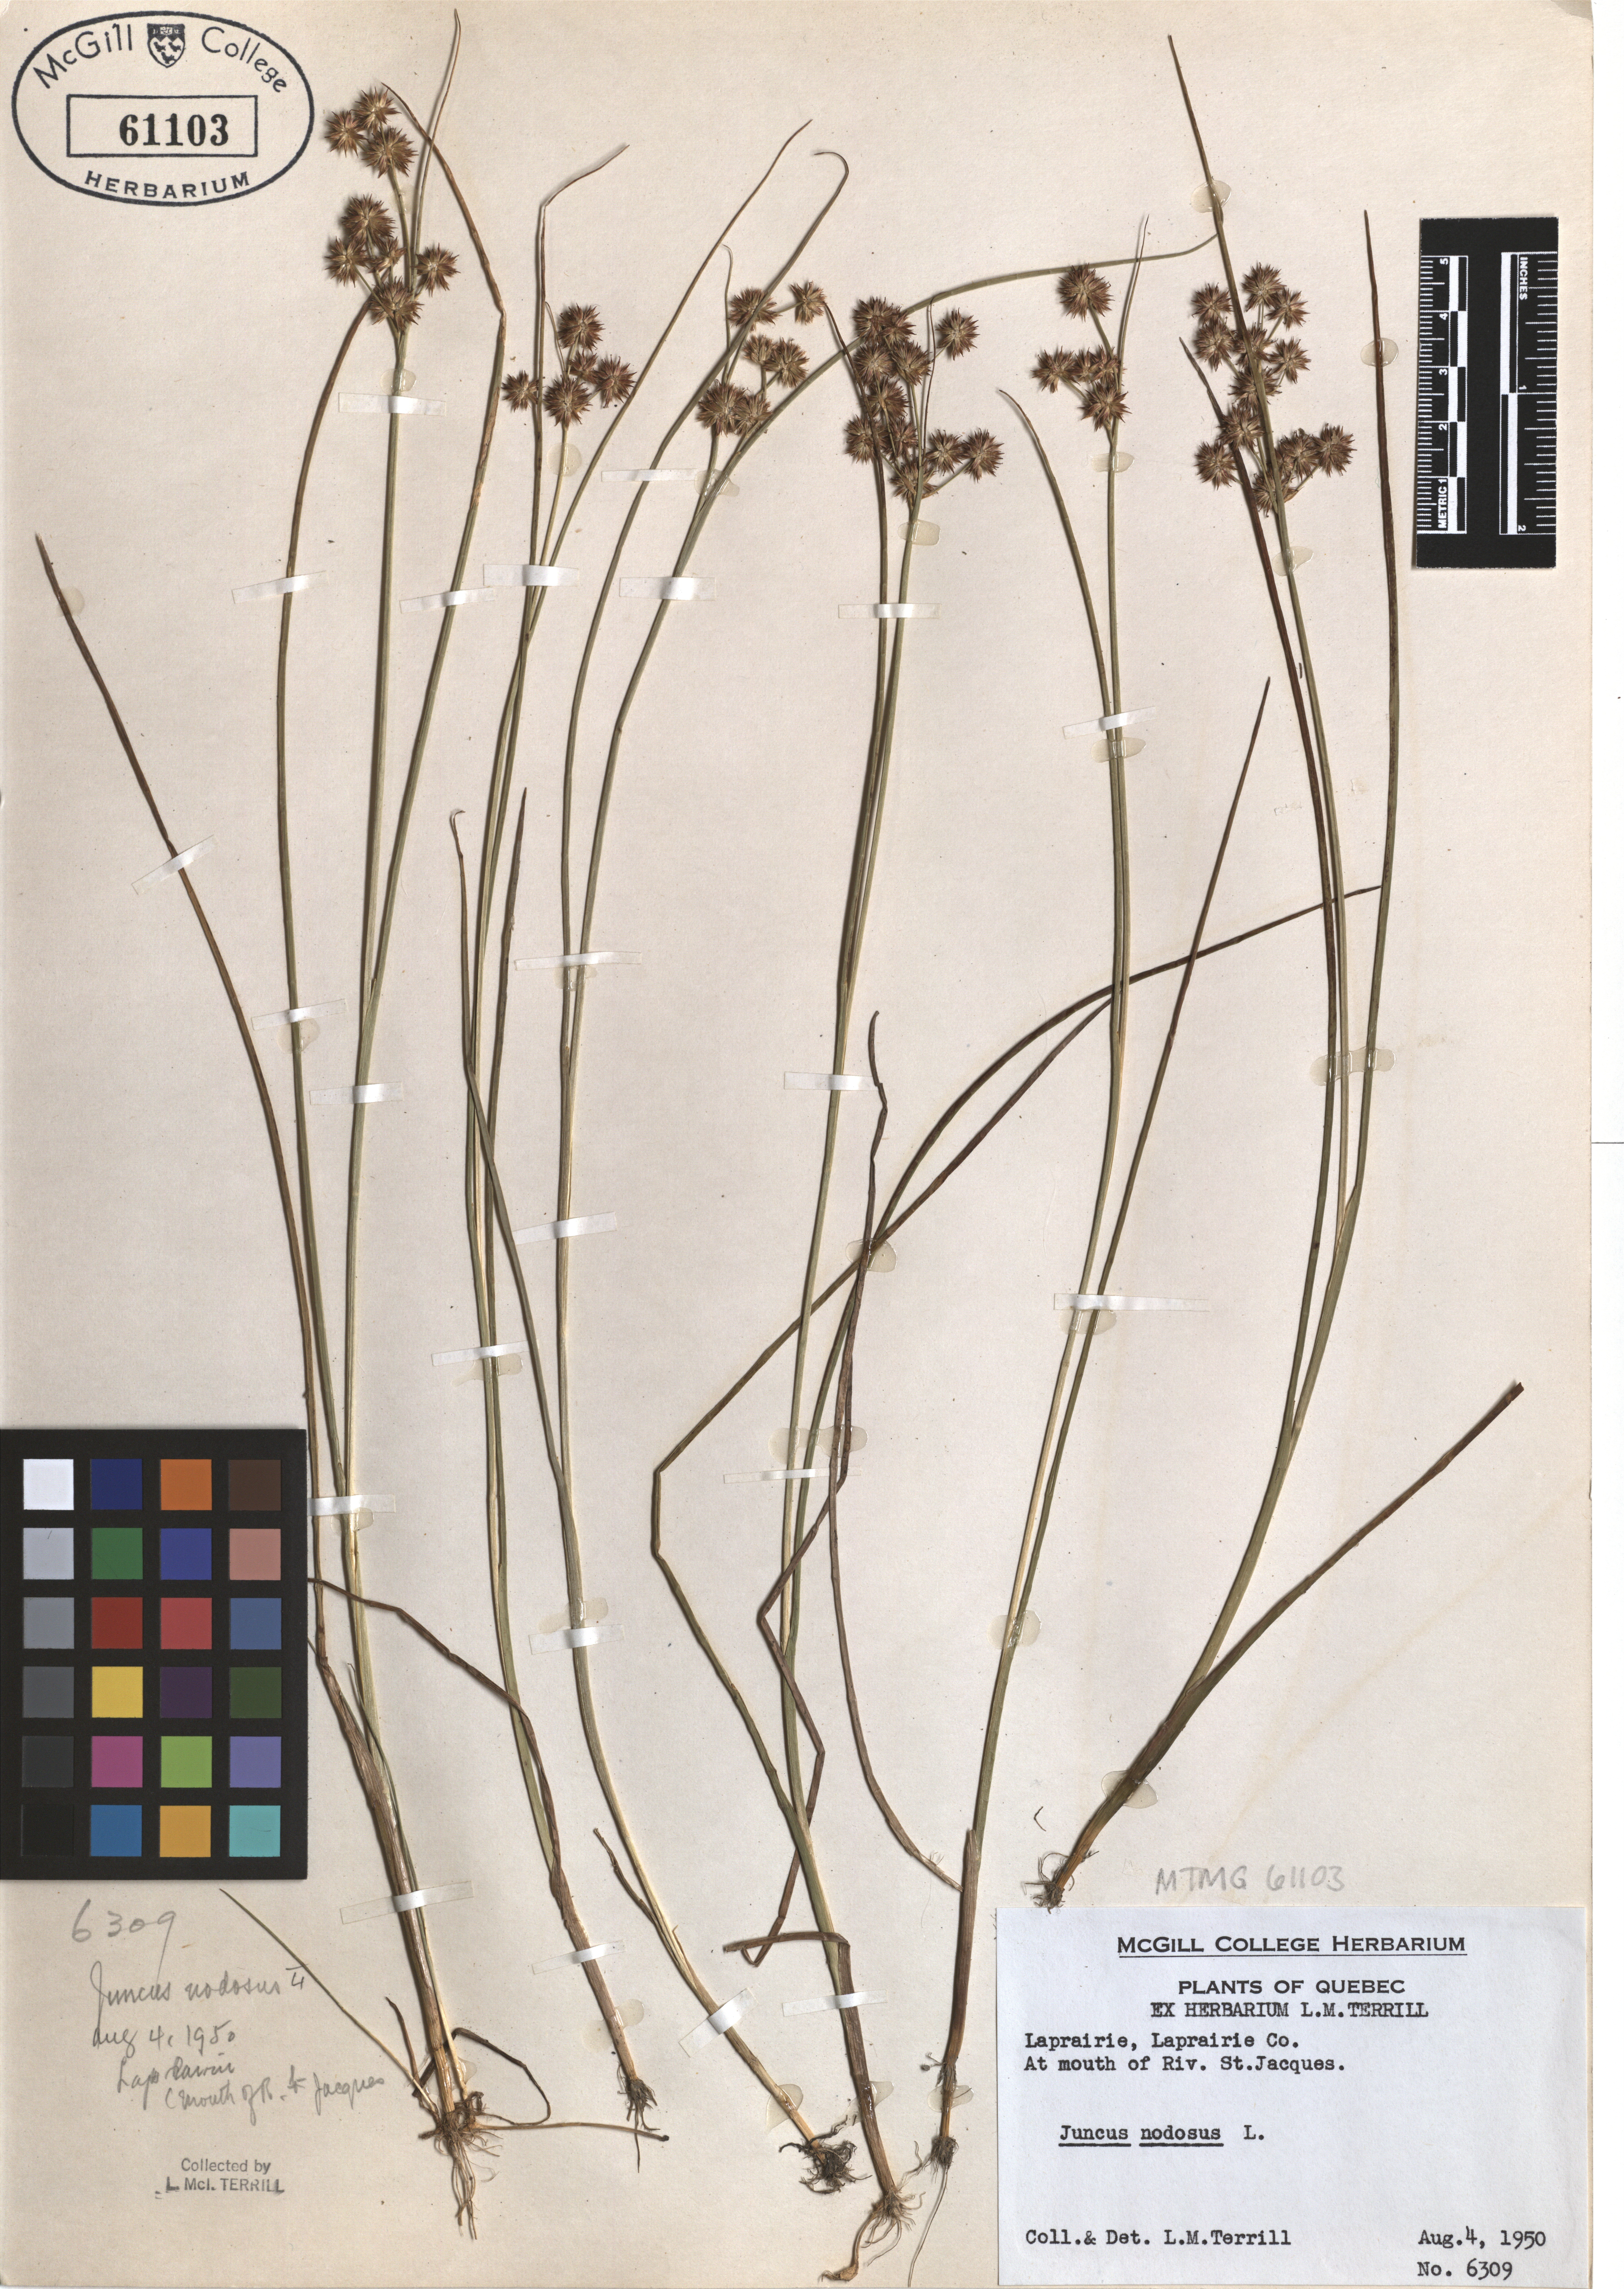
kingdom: Plantae
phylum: Tracheophyta
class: Liliopsida
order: Poales
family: Juncaceae
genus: Juncus
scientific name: Juncus nodosus
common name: Knotted rush
